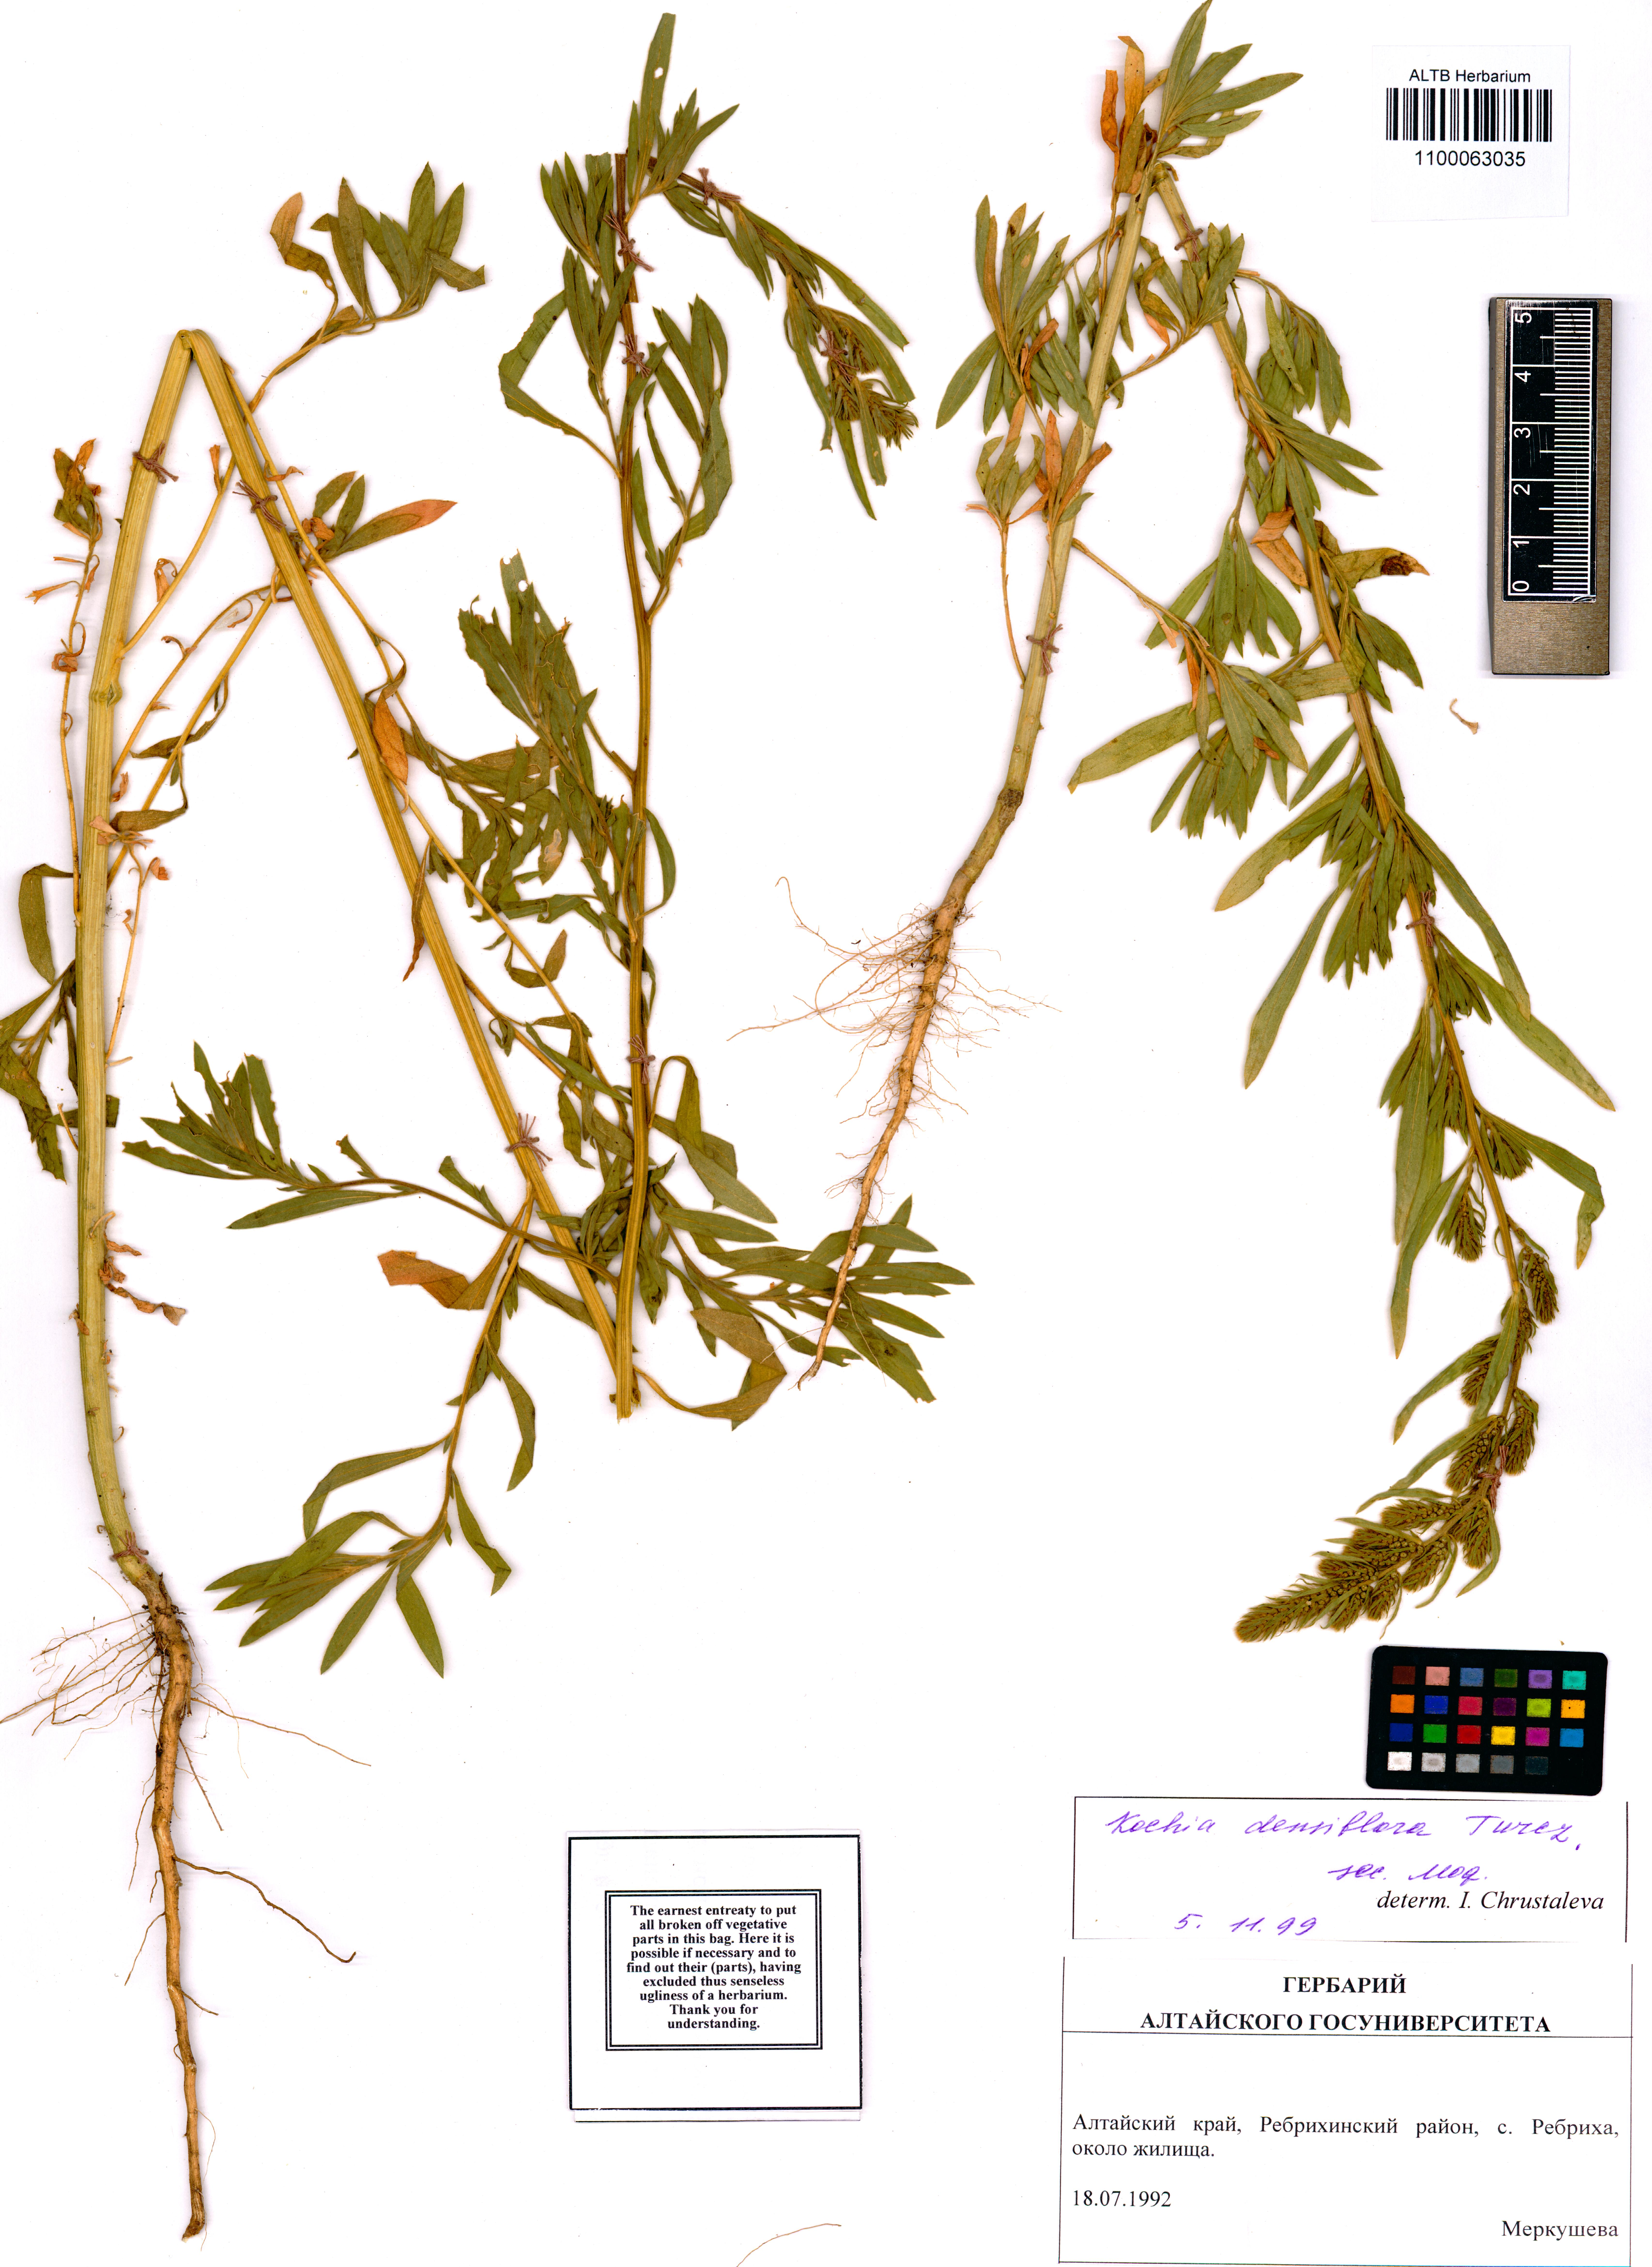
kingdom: Plantae
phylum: Tracheophyta
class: Magnoliopsida
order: Caryophyllales
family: Amaranthaceae
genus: Bassia
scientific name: Bassia scoparia
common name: Belvedere
